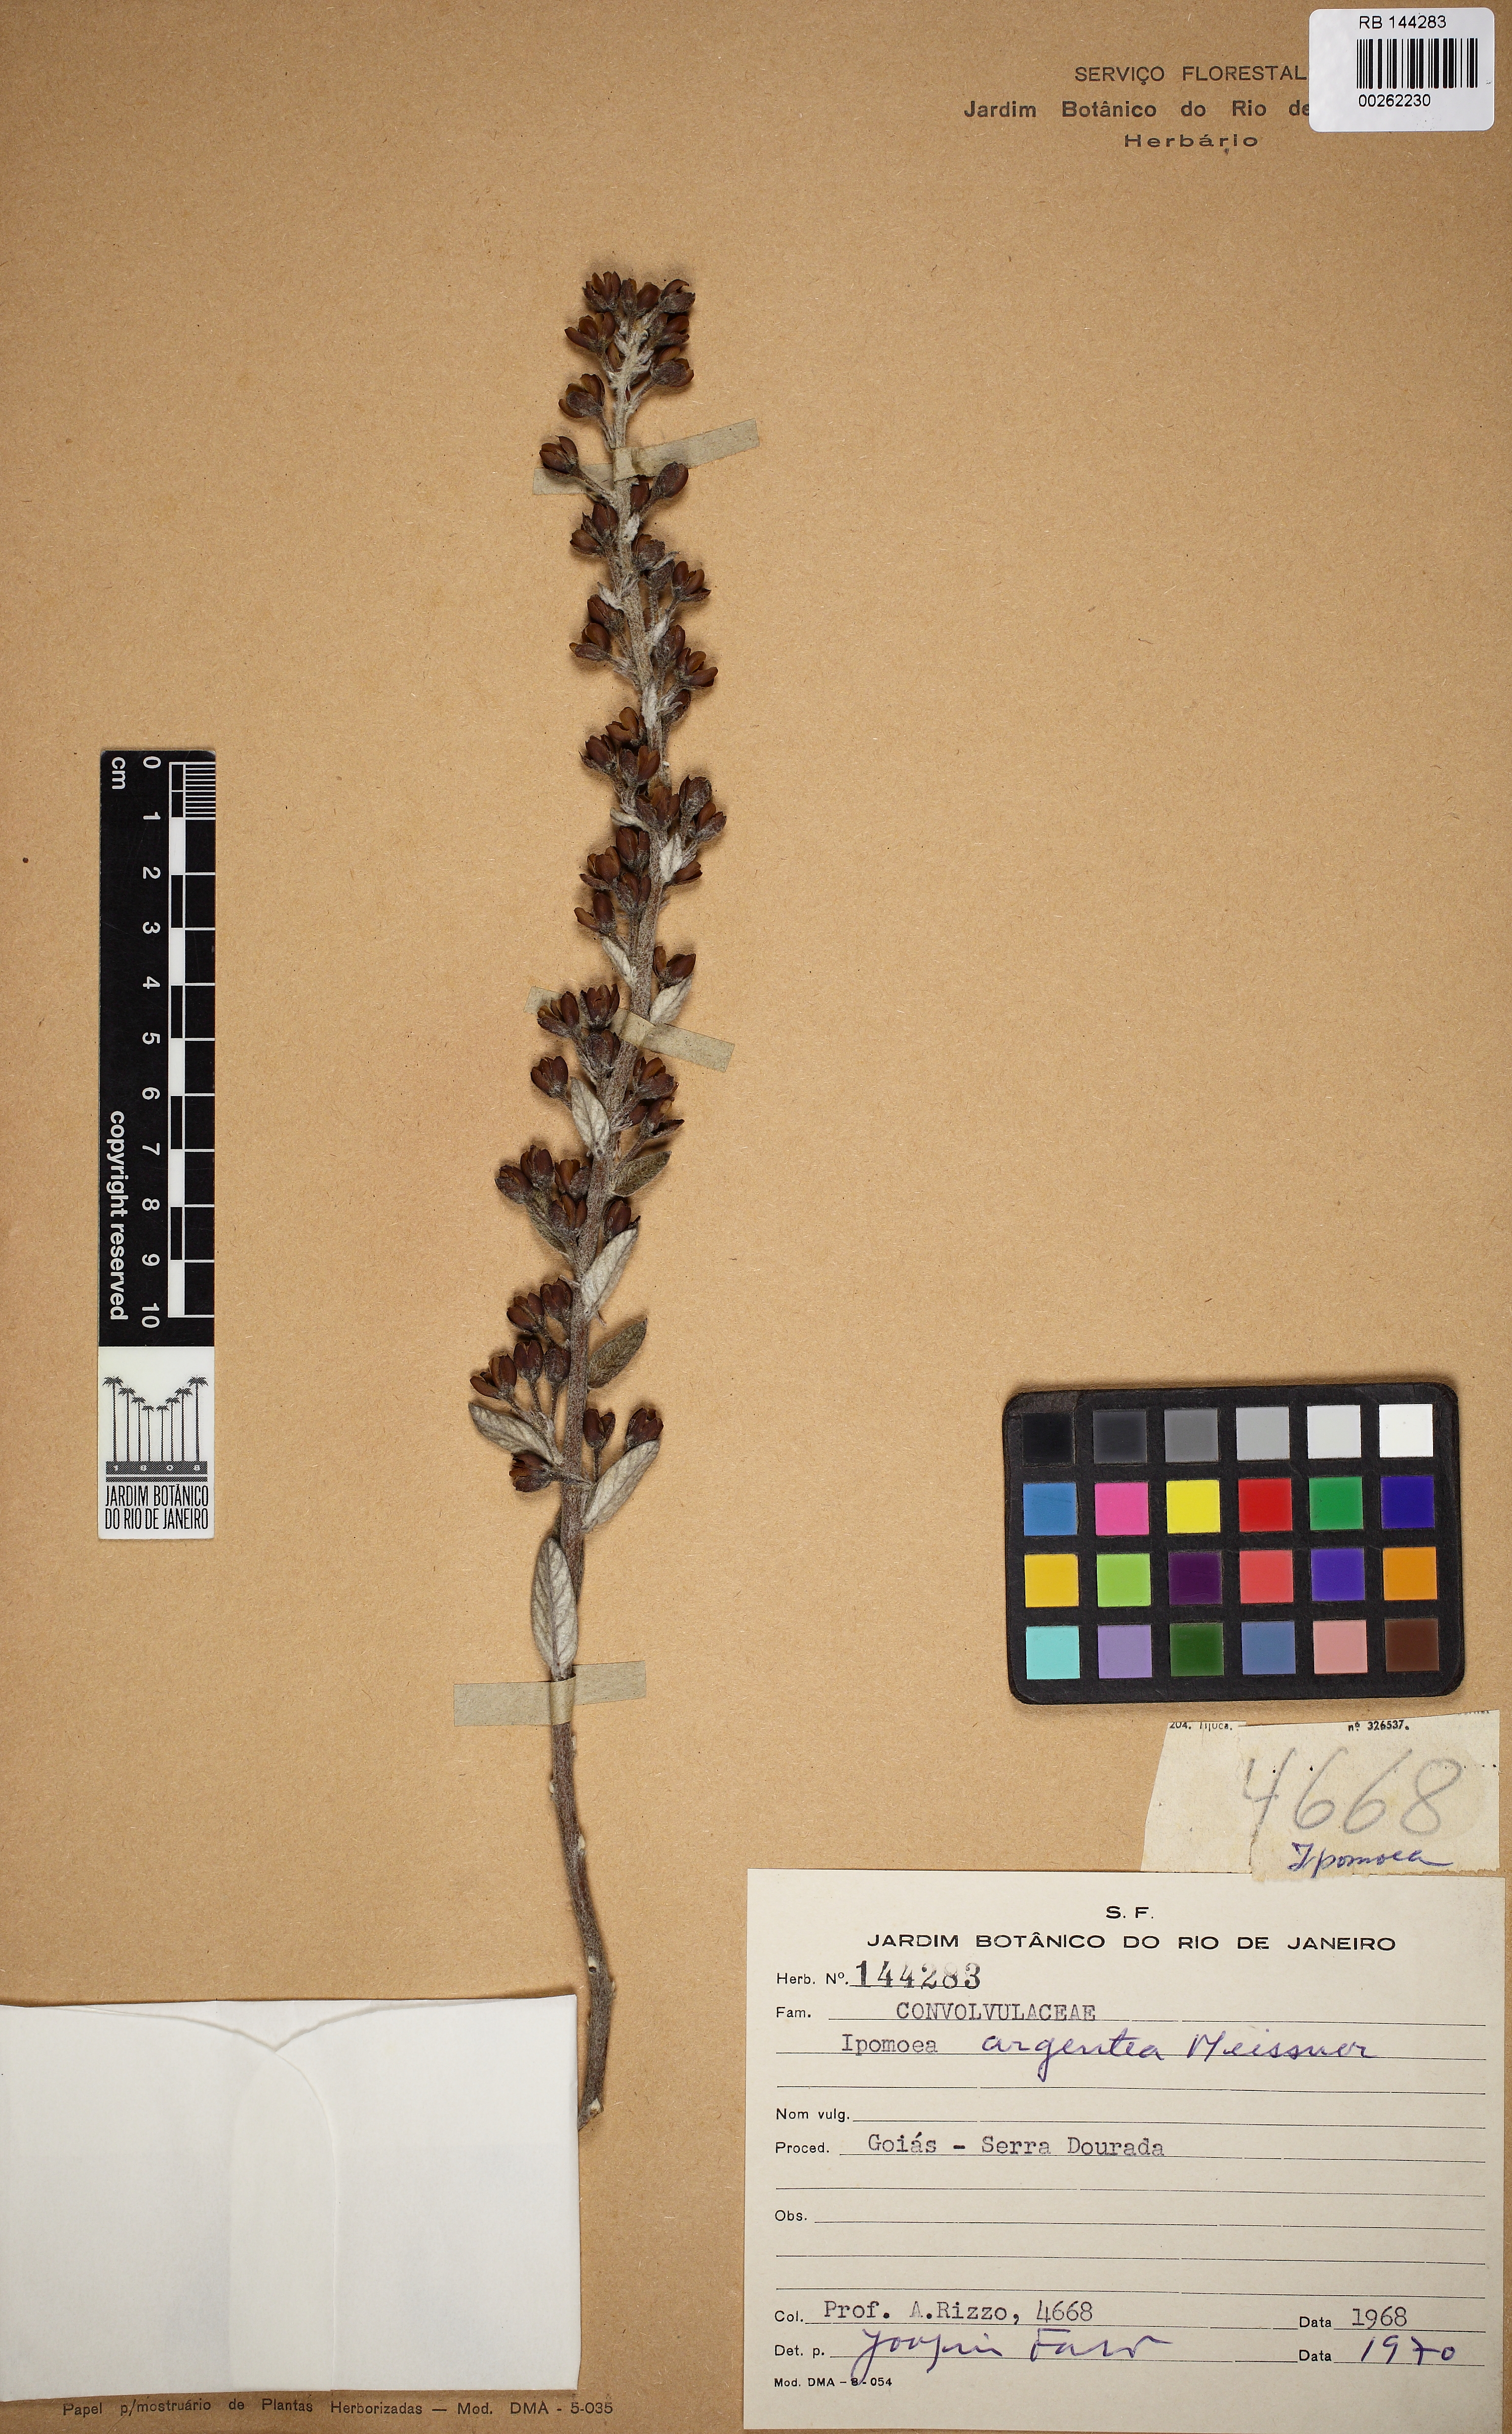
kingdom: Plantae
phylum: Tracheophyta
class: Magnoliopsida
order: Solanales
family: Convolvulaceae
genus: Ipomoea
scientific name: Ipomoea argentea
